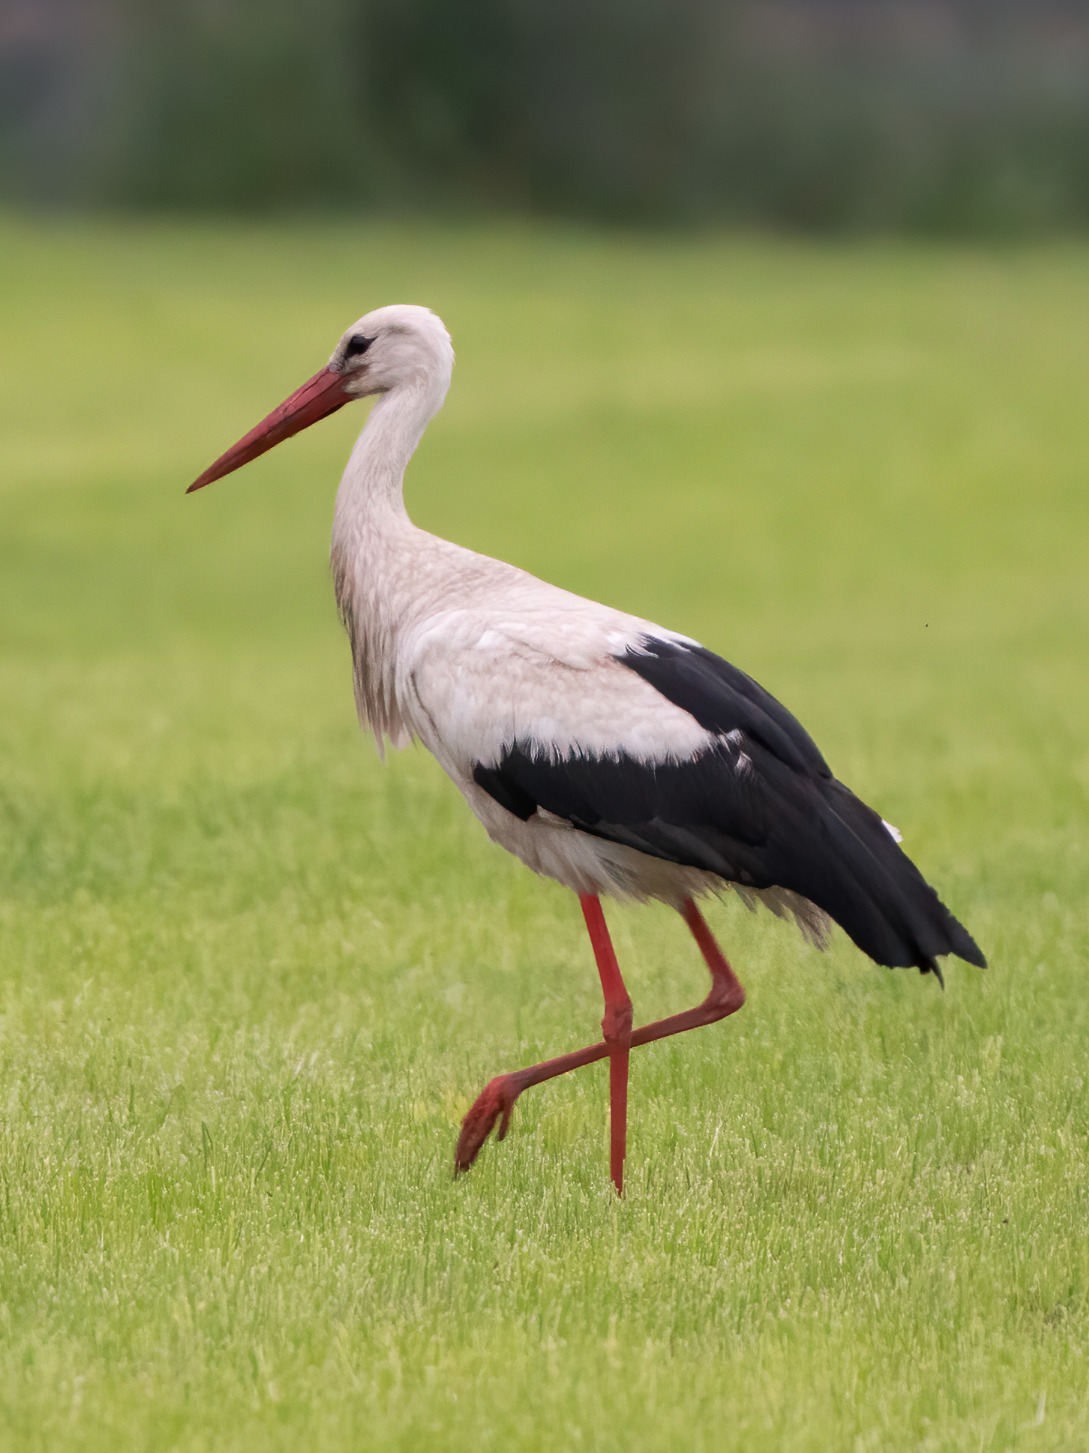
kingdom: Animalia
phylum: Chordata
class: Aves
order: Ciconiiformes
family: Ciconiidae
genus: Ciconia
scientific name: Ciconia ciconia
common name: Hvid stork
